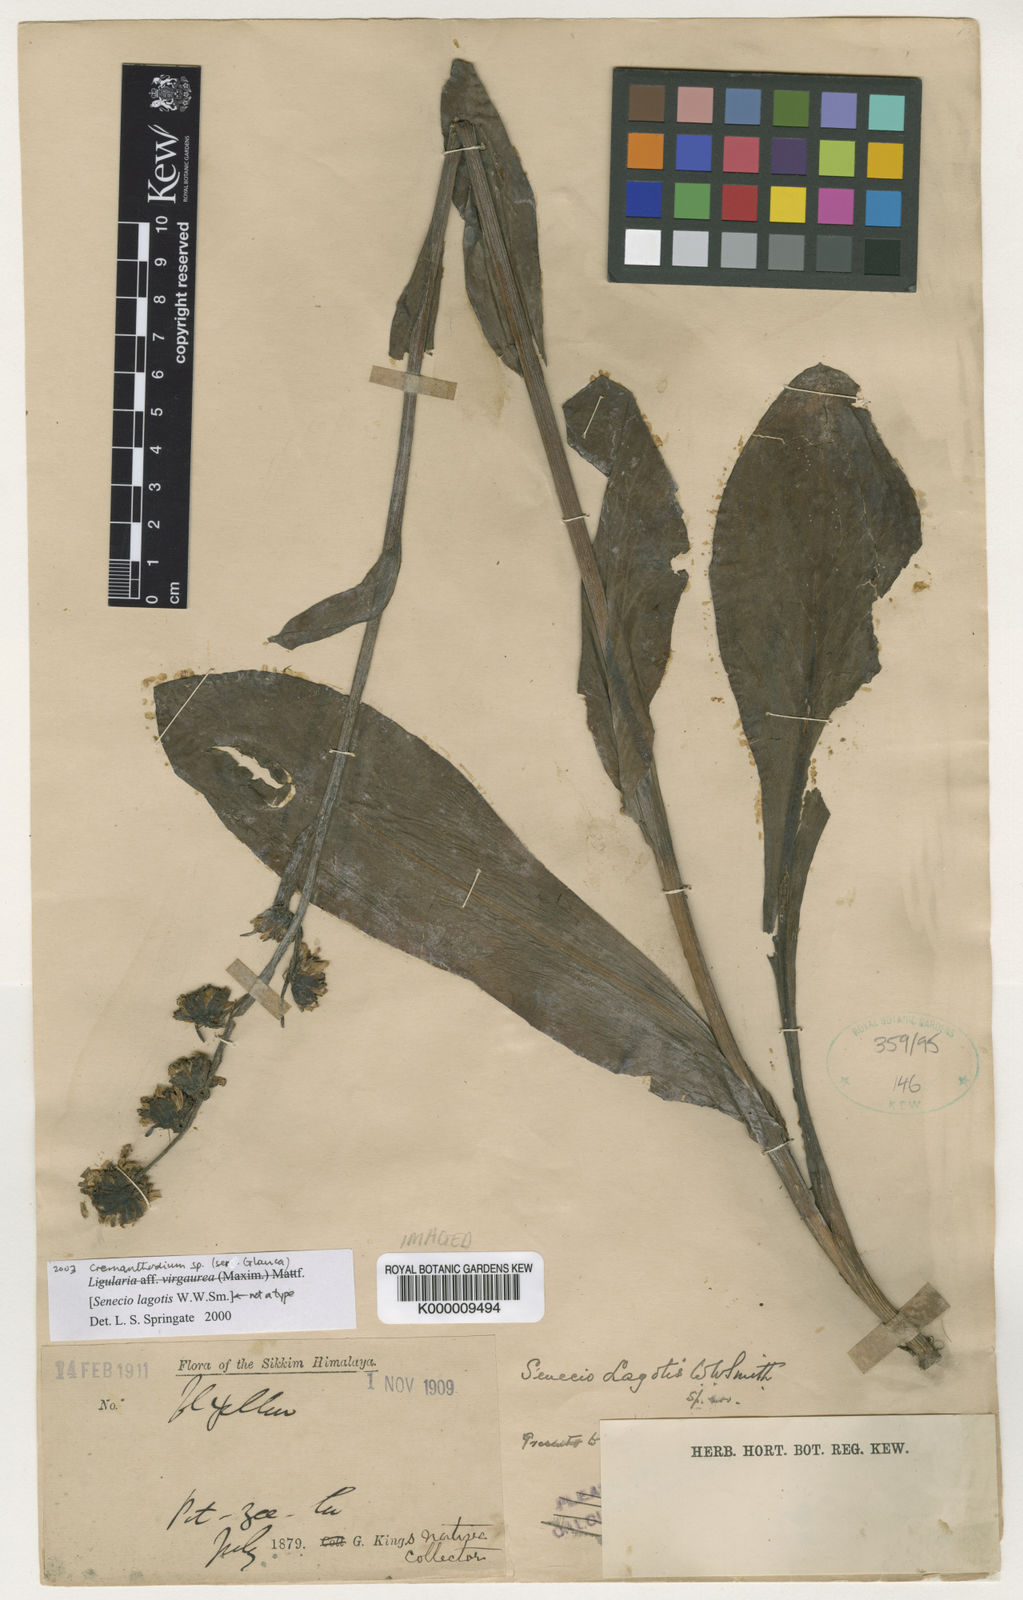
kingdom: Plantae
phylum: Tracheophyta
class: Magnoliopsida
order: Asterales
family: Asteraceae
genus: Ligularia
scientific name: Ligularia virgaurea
